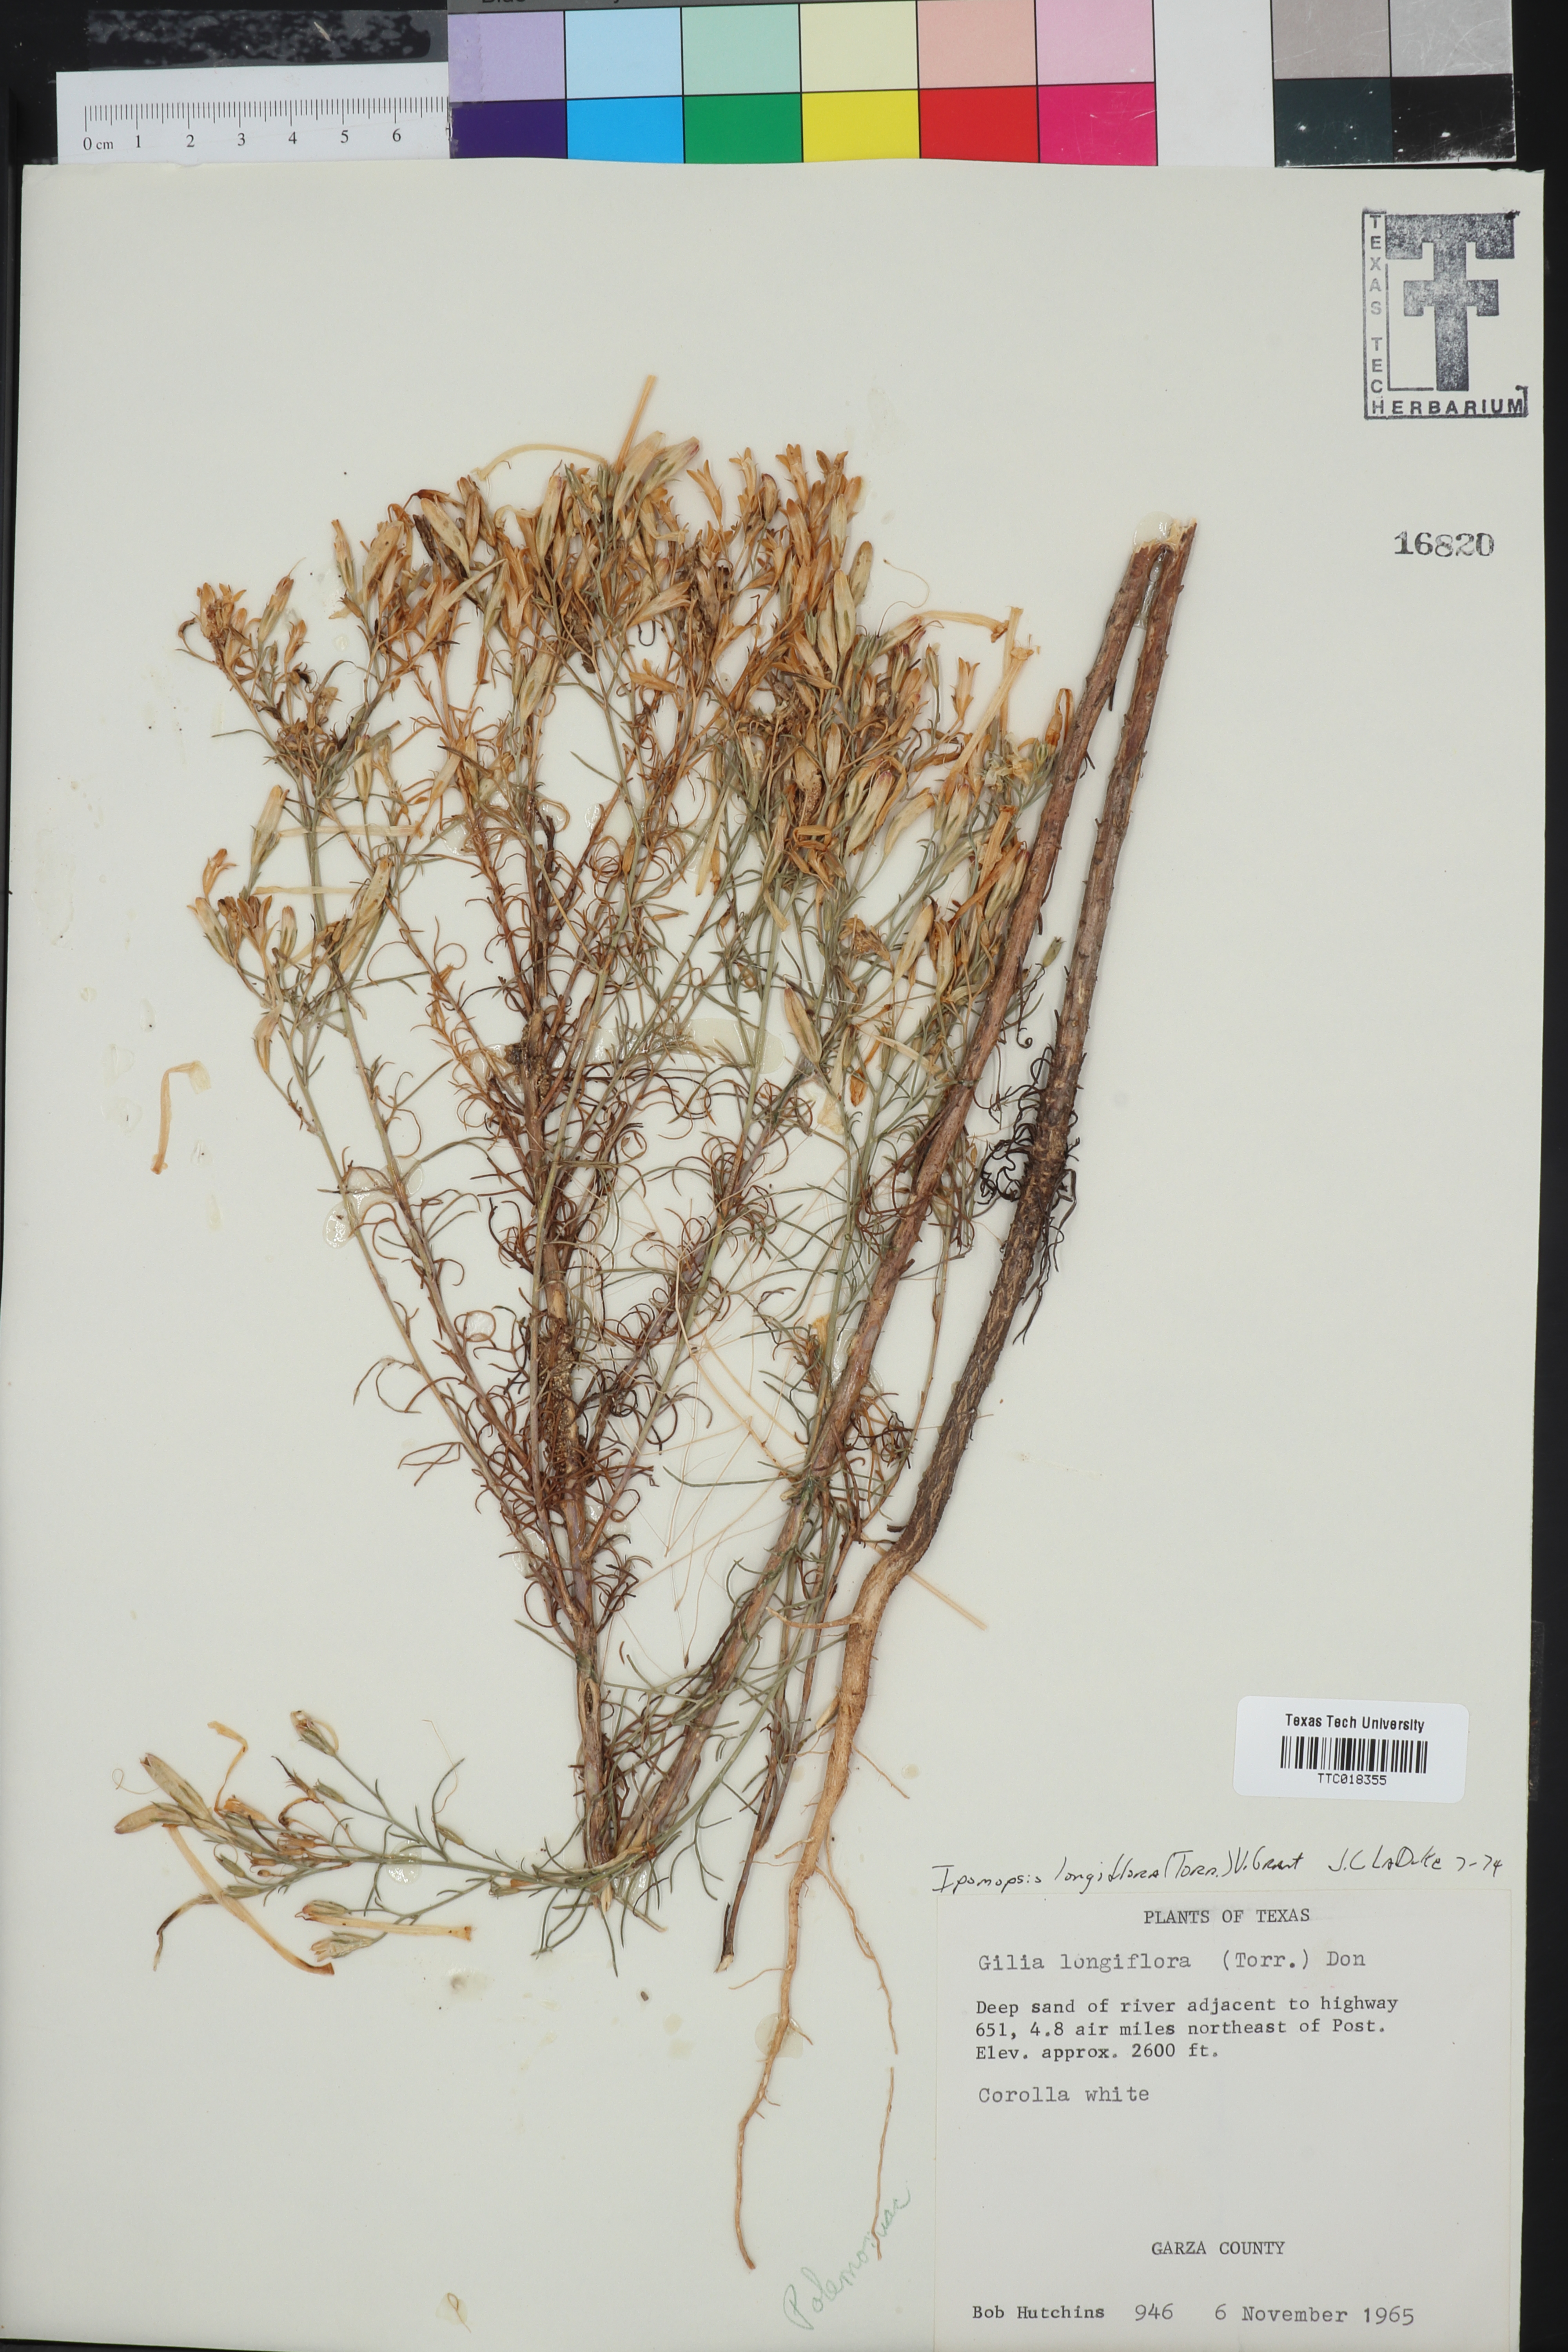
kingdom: Plantae
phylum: Tracheophyta
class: Magnoliopsida
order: Ericales
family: Polemoniaceae
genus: Ipomopsis
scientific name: Ipomopsis longiflora
